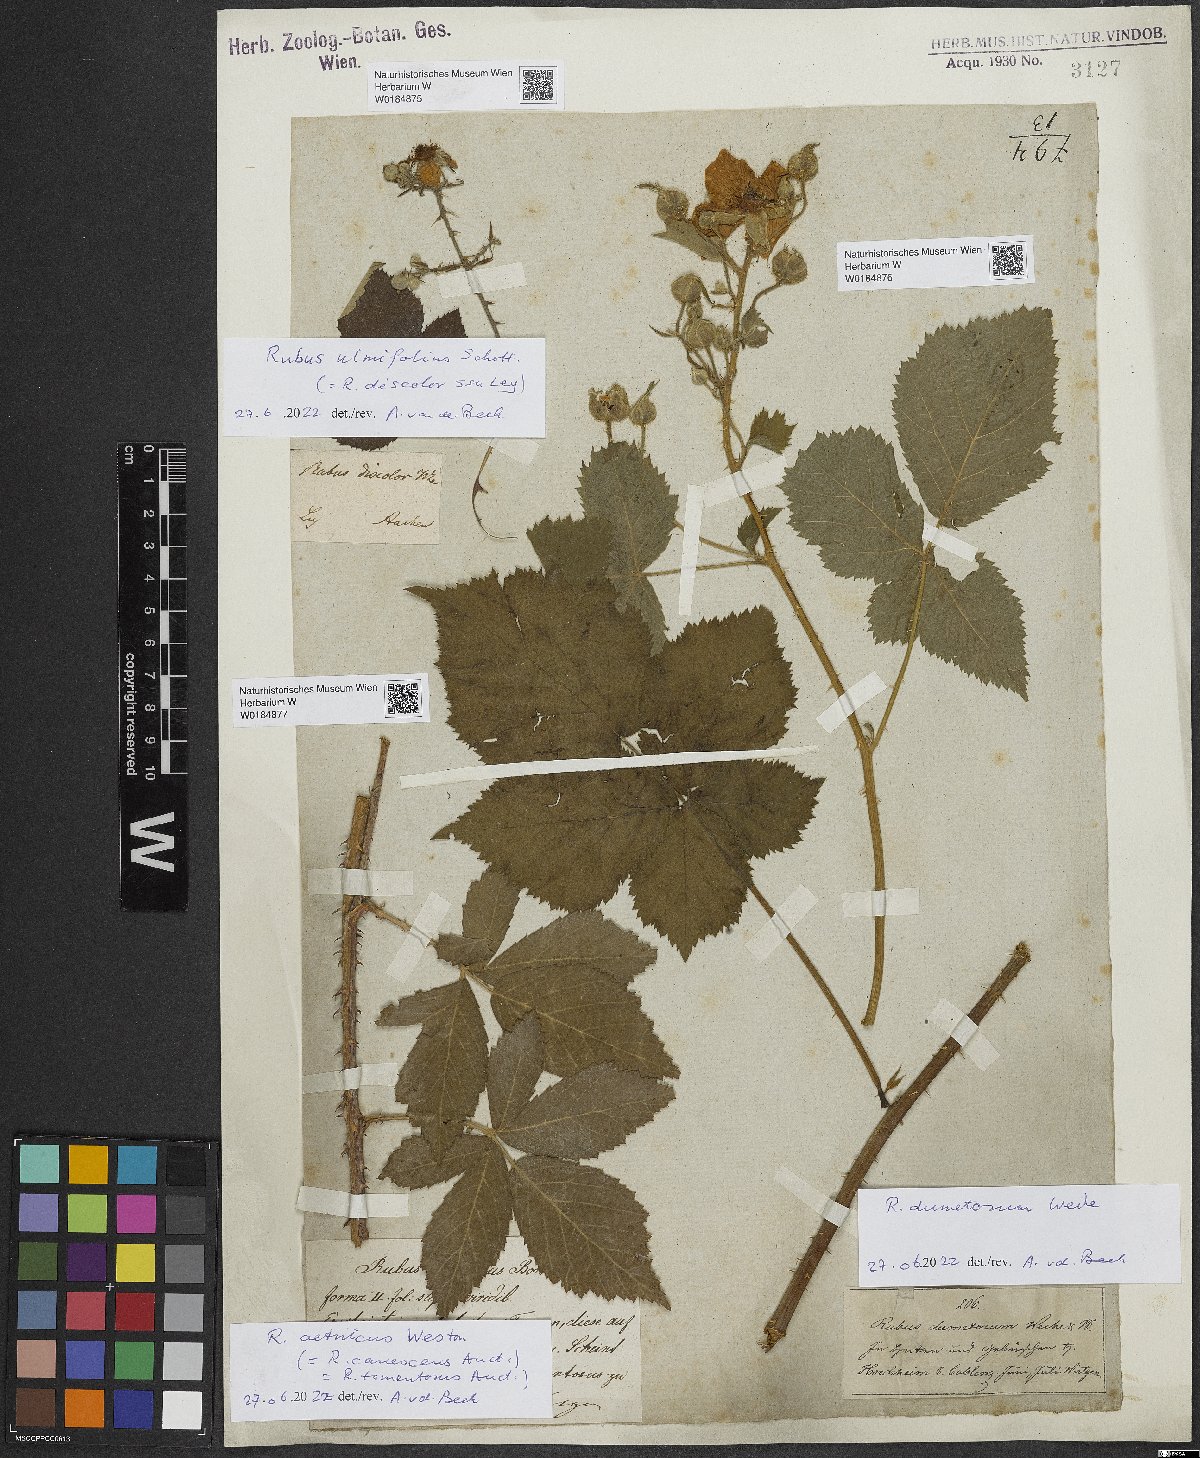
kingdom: Plantae
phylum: Tracheophyta
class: Magnoliopsida
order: Rosales
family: Rosaceae
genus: Rubus
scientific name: Rubus ulmifolius
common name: Elmleaf blackberry
